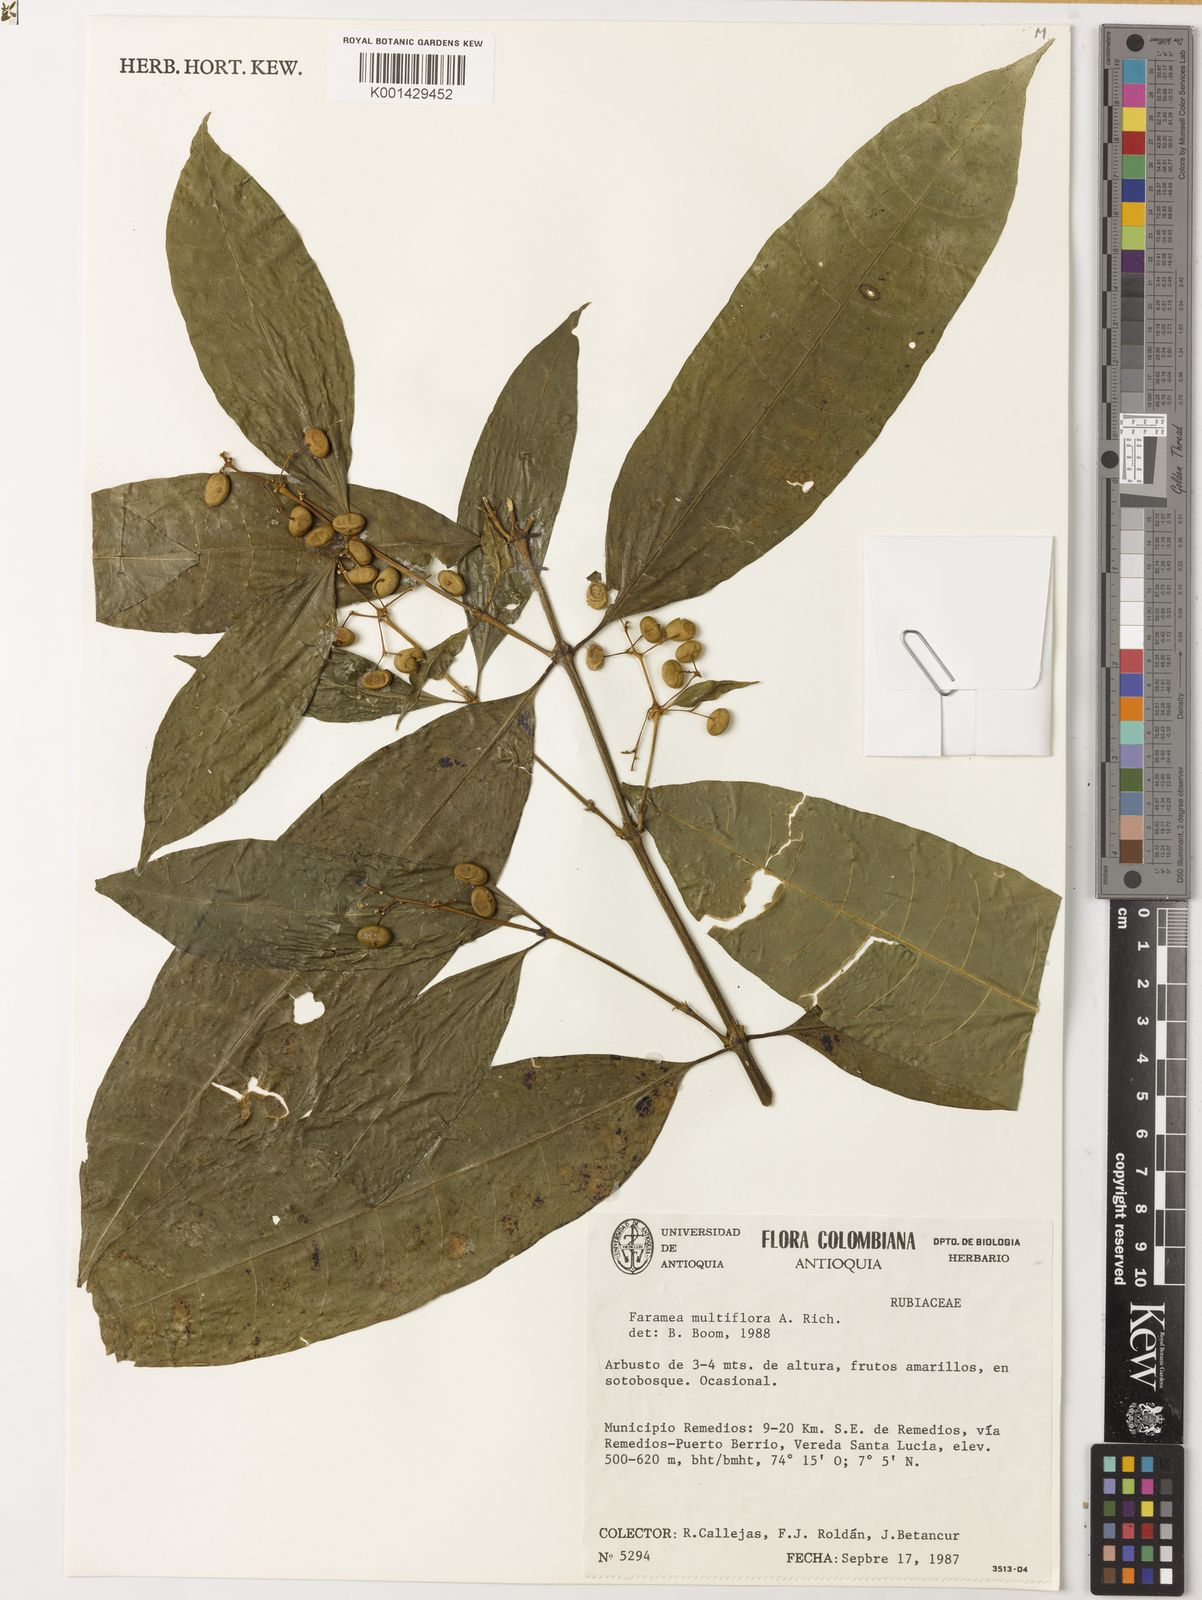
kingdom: Plantae
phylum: Tracheophyta
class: Magnoliopsida
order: Gentianales
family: Rubiaceae
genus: Faramea
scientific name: Faramea multiflora
